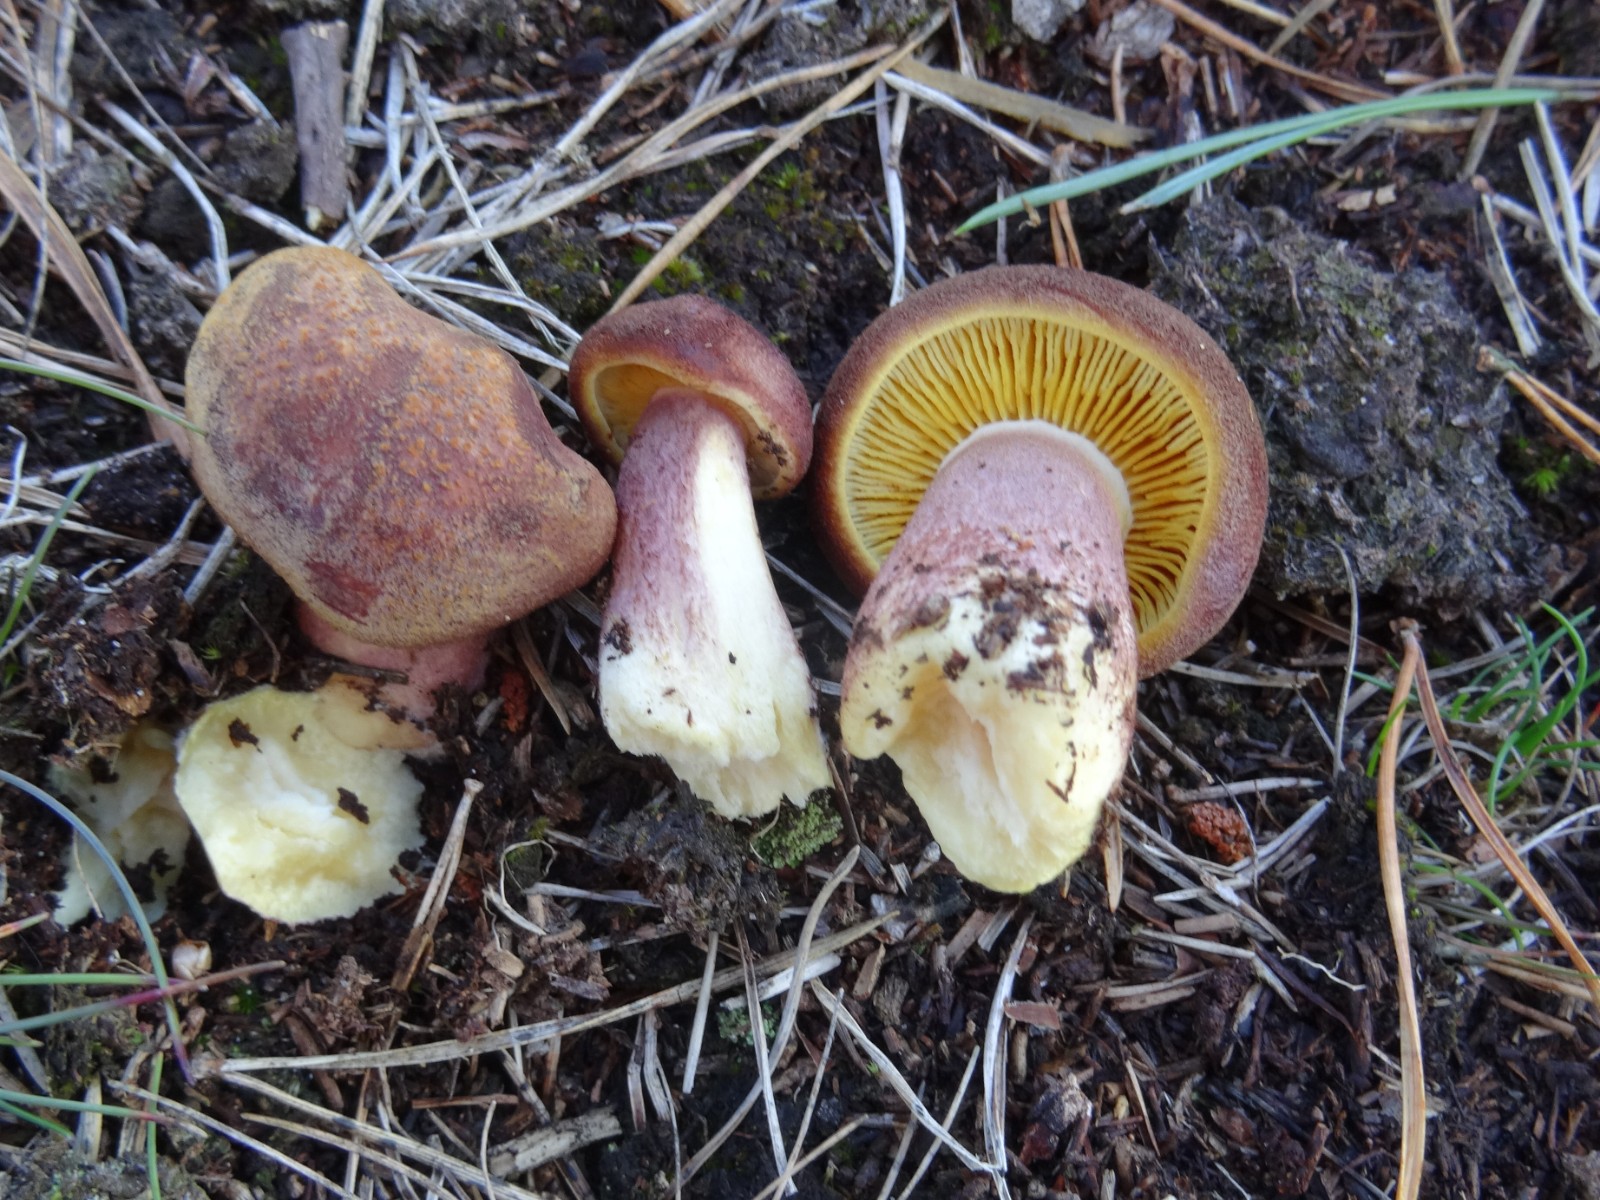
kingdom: Fungi
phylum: Basidiomycota
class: Agaricomycetes
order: Agaricales
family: Tricholomataceae
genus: Tricholomopsis
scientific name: Tricholomopsis rutilans
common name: purpur-væbnerhat
